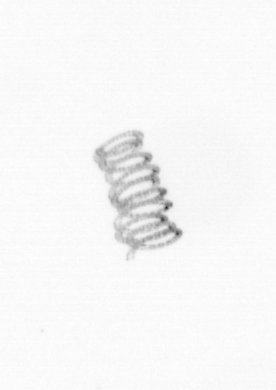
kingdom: Chromista
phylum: Ochrophyta
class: Bacillariophyceae
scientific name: Bacillariophyceae
